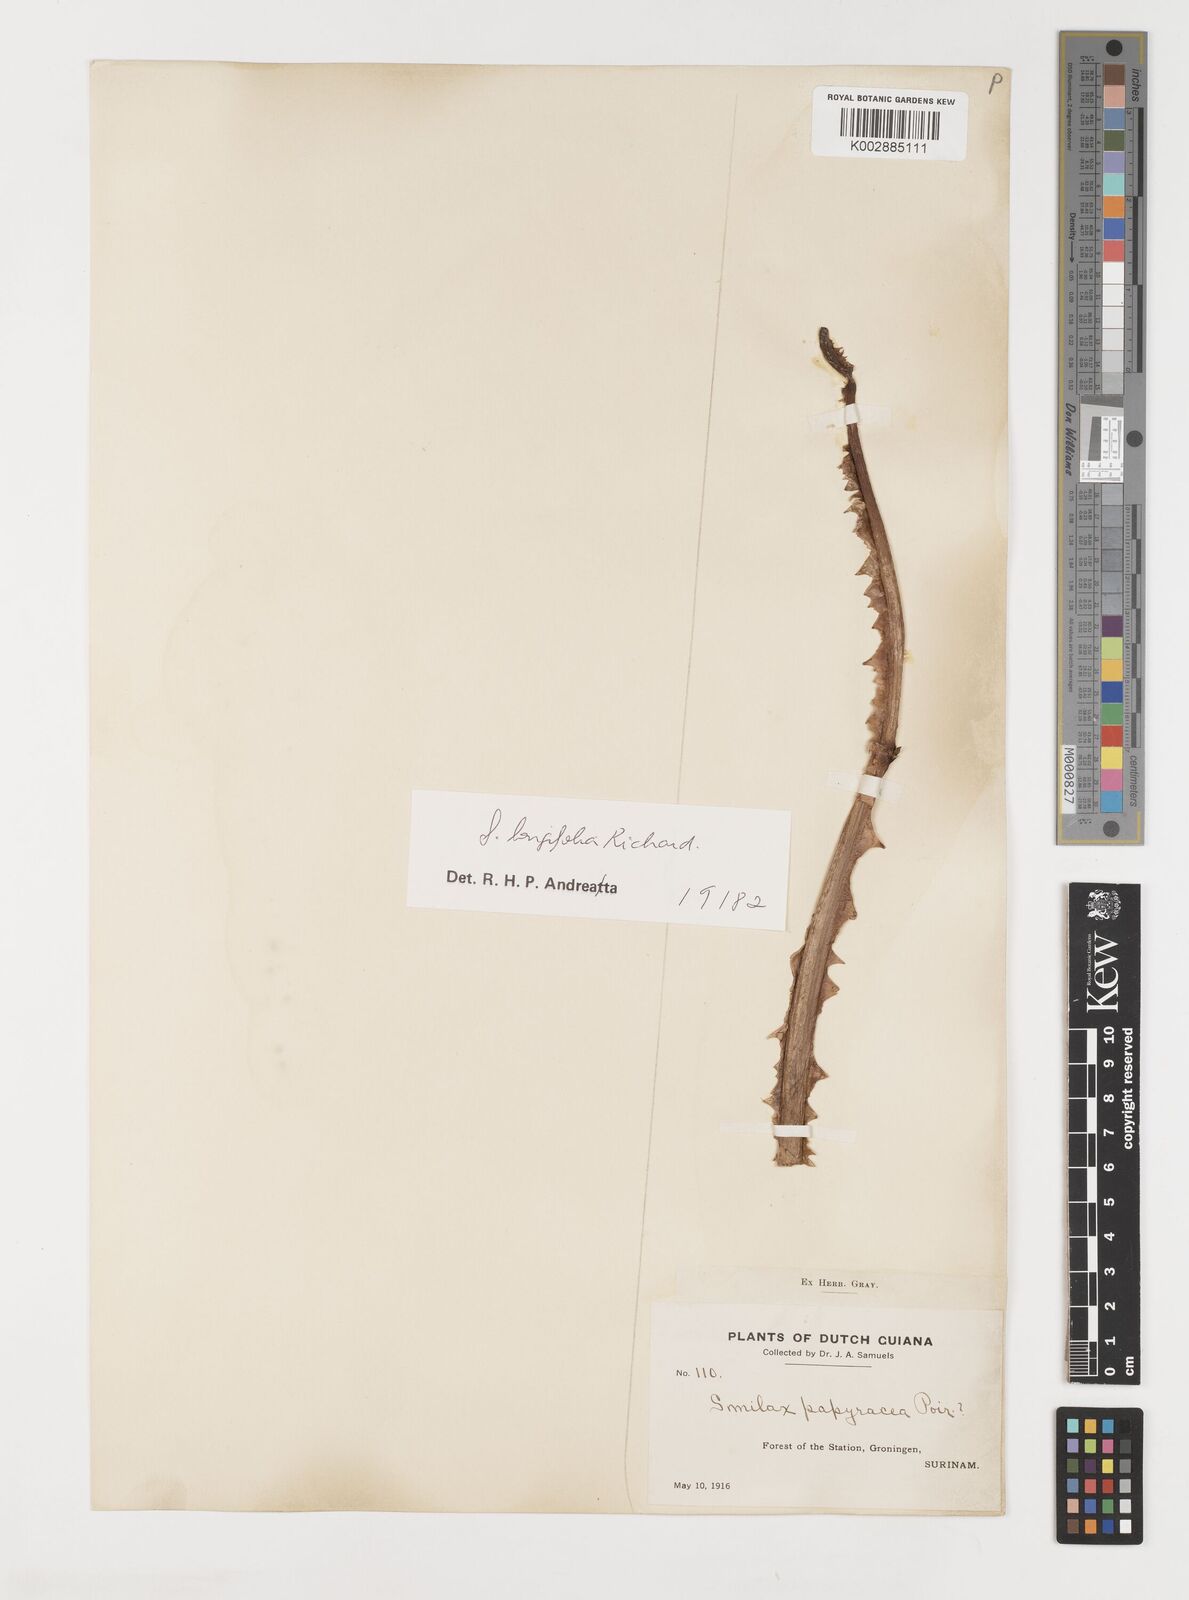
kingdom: Plantae
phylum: Tracheophyta
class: Liliopsida
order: Liliales
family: Smilacaceae
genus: Smilax
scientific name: Smilax longifolia
